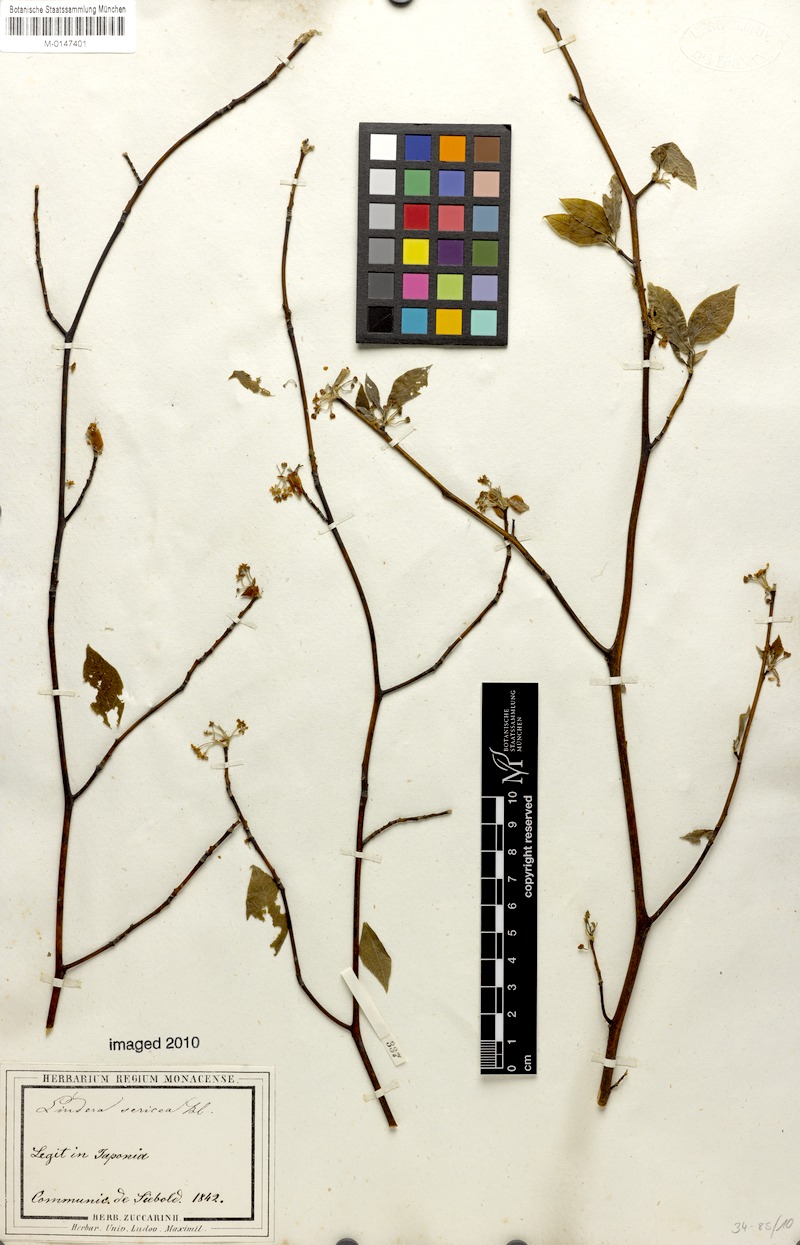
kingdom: Plantae
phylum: Tracheophyta
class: Magnoliopsida
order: Laurales
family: Lauraceae
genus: Lindera
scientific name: Lindera sericea
